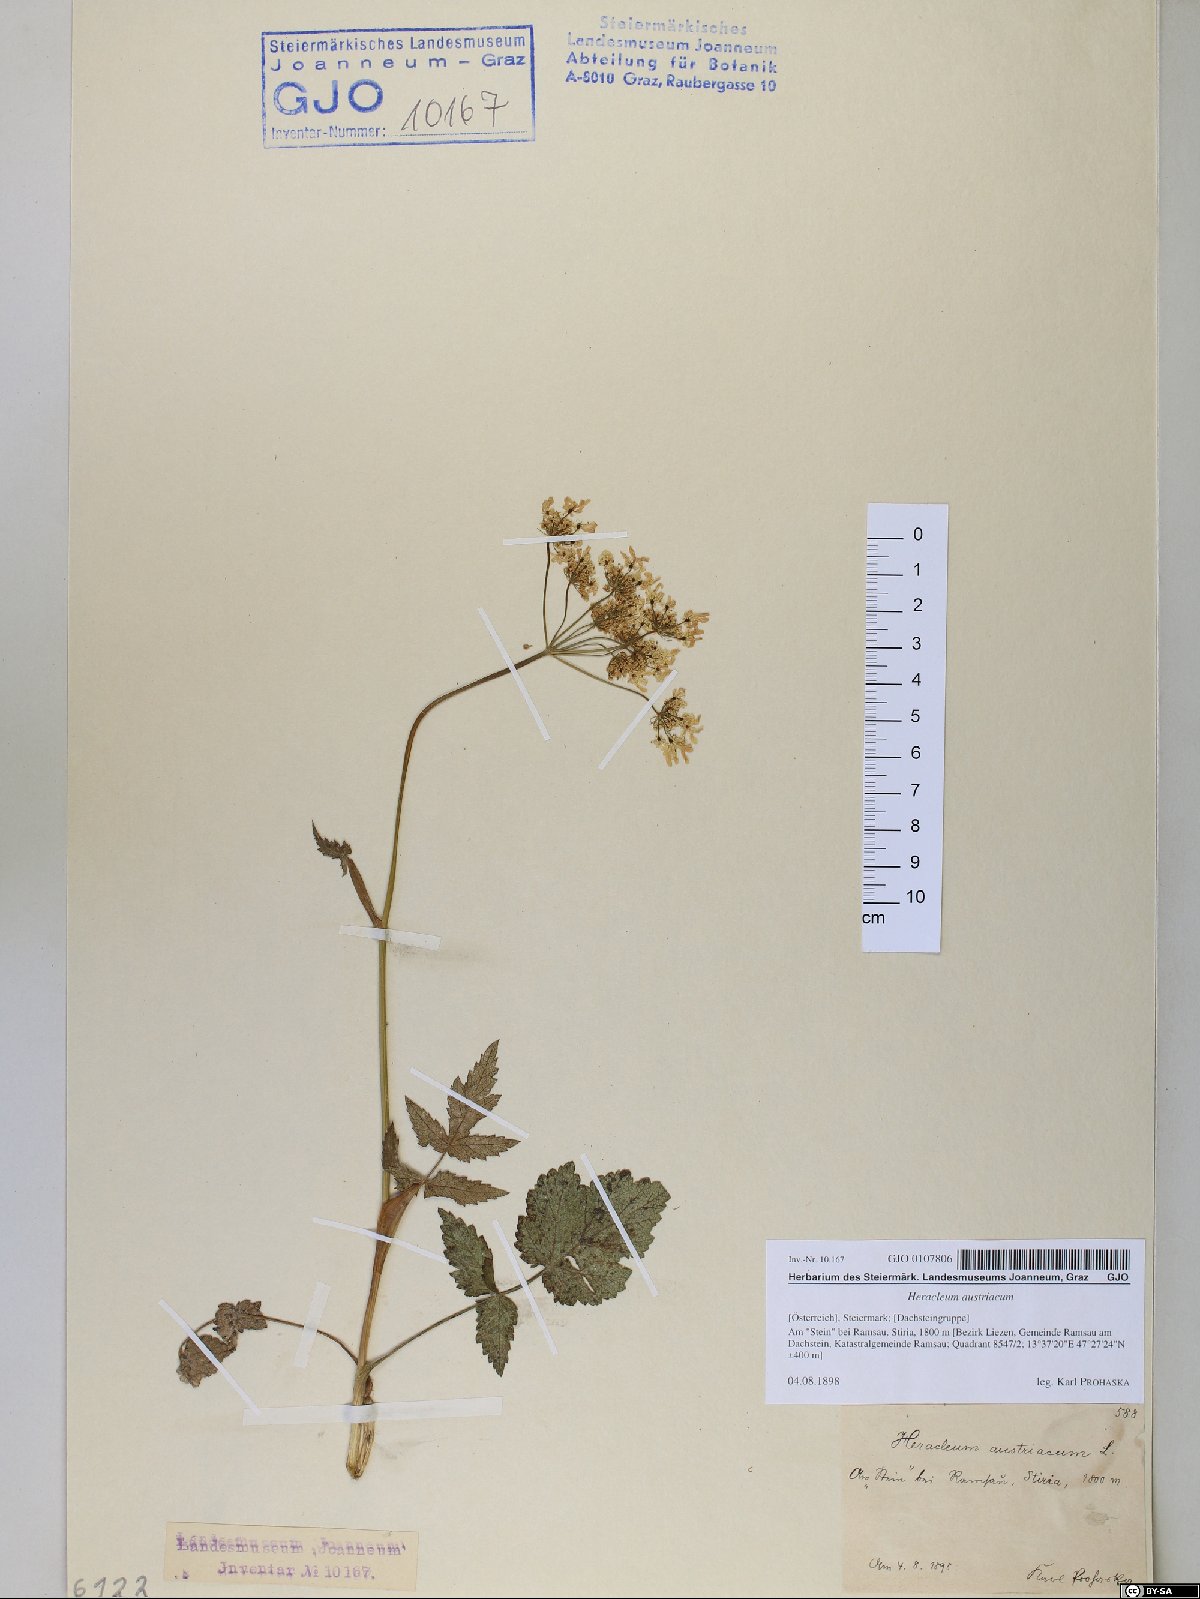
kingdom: Plantae
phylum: Tracheophyta
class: Magnoliopsida
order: Apiales
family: Apiaceae
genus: Heracleum
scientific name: Heracleum austriacum
